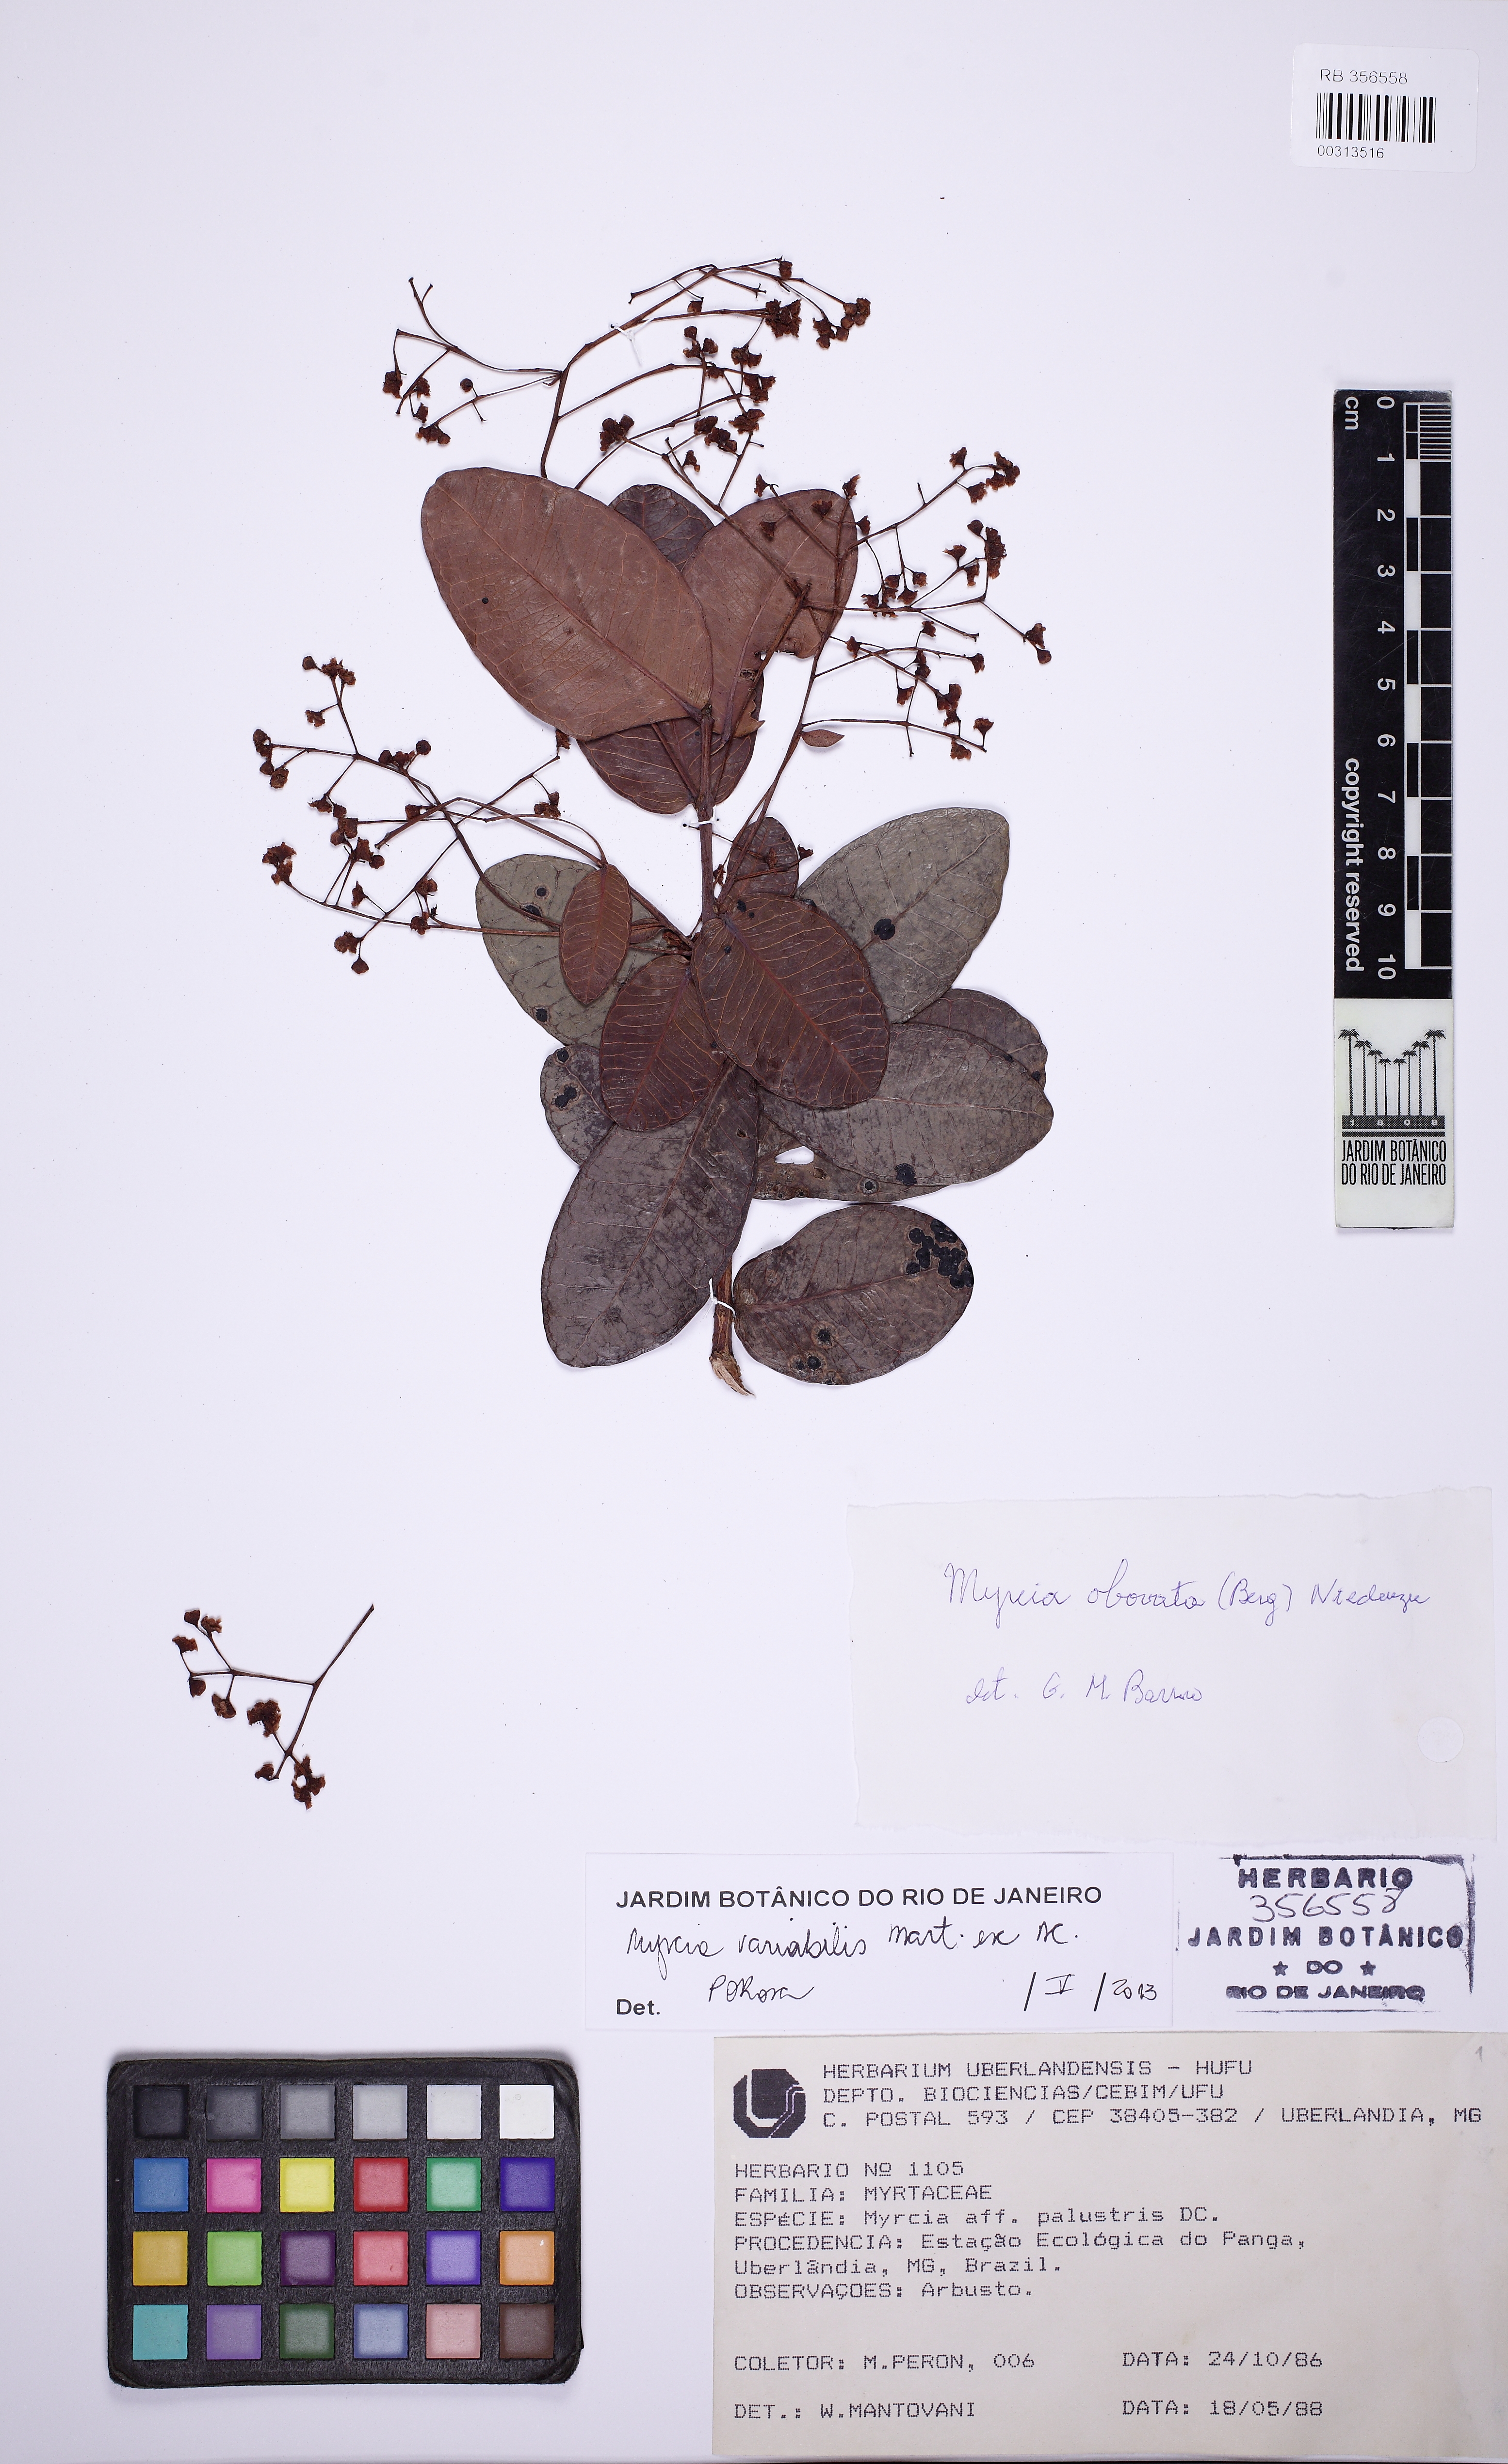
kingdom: Plantae
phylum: Tracheophyta
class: Magnoliopsida
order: Myrtales
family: Myrtaceae
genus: Myrcia
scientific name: Myrcia variabilis
